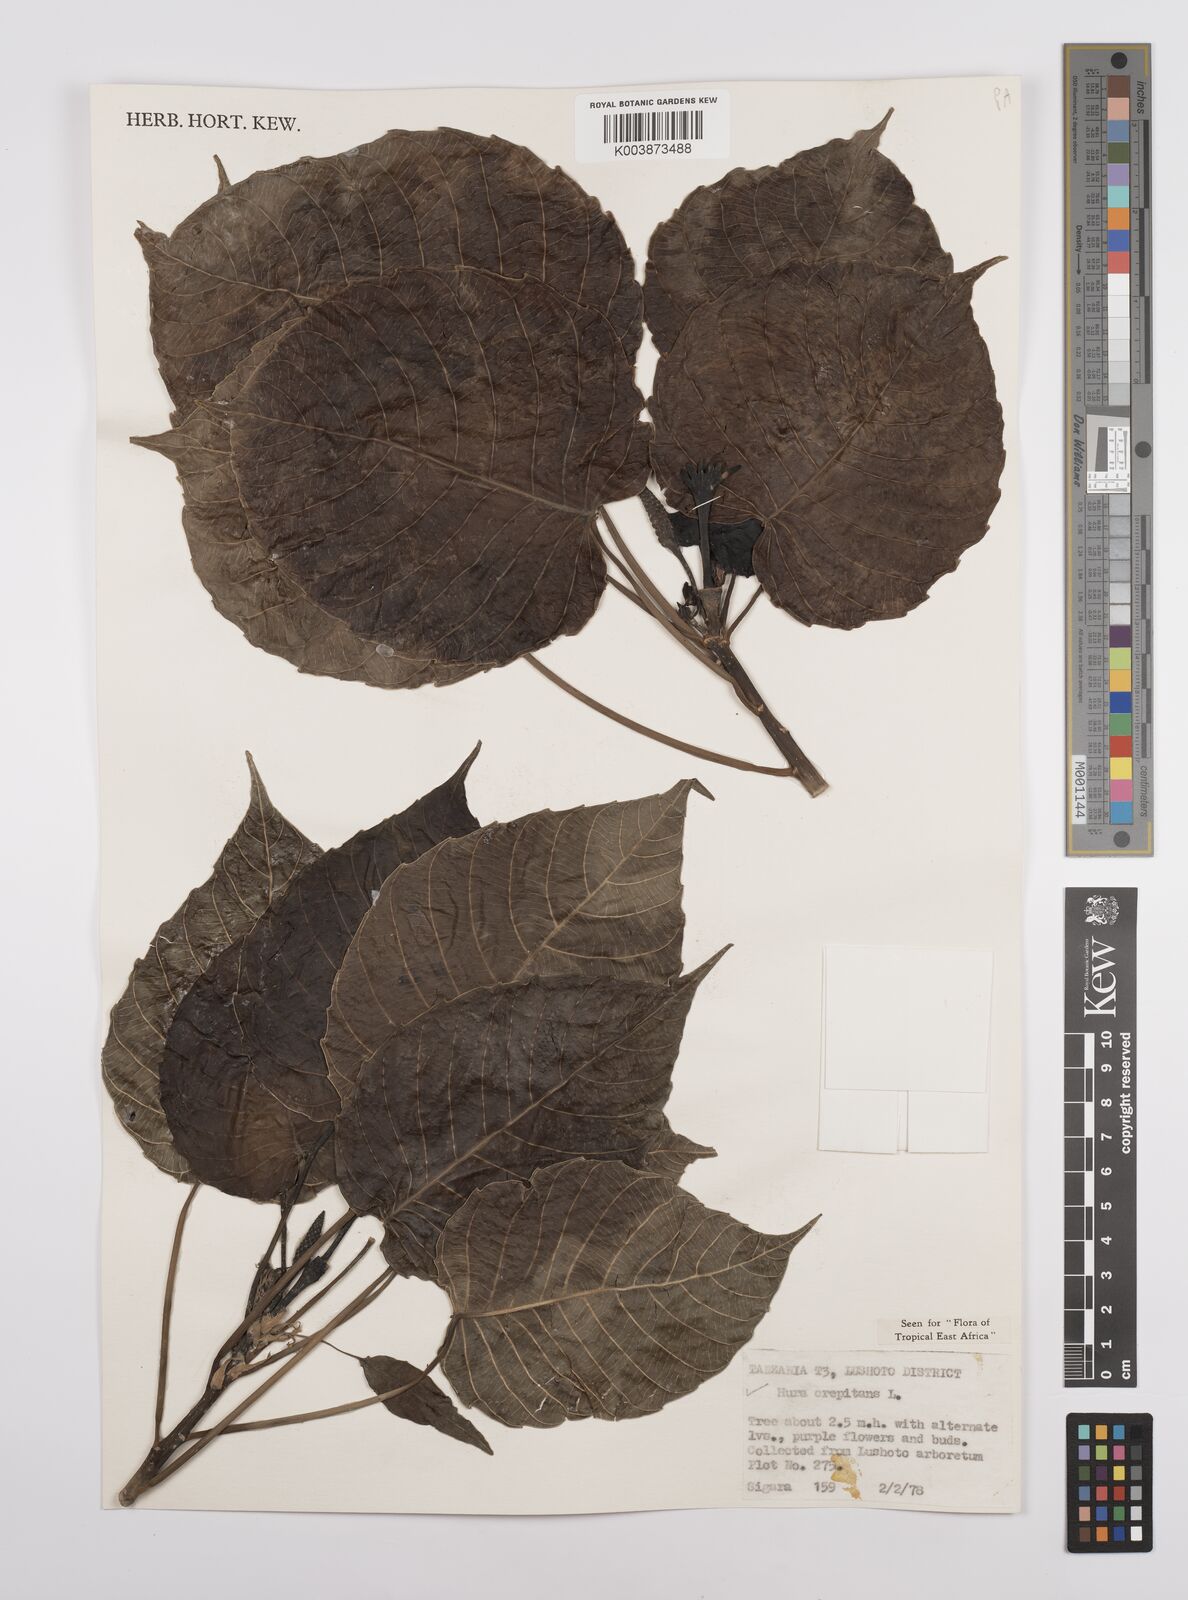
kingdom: Plantae
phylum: Tracheophyta
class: Magnoliopsida
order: Malpighiales
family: Euphorbiaceae
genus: Hura
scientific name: Hura crepitans
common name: Sandboxtree
